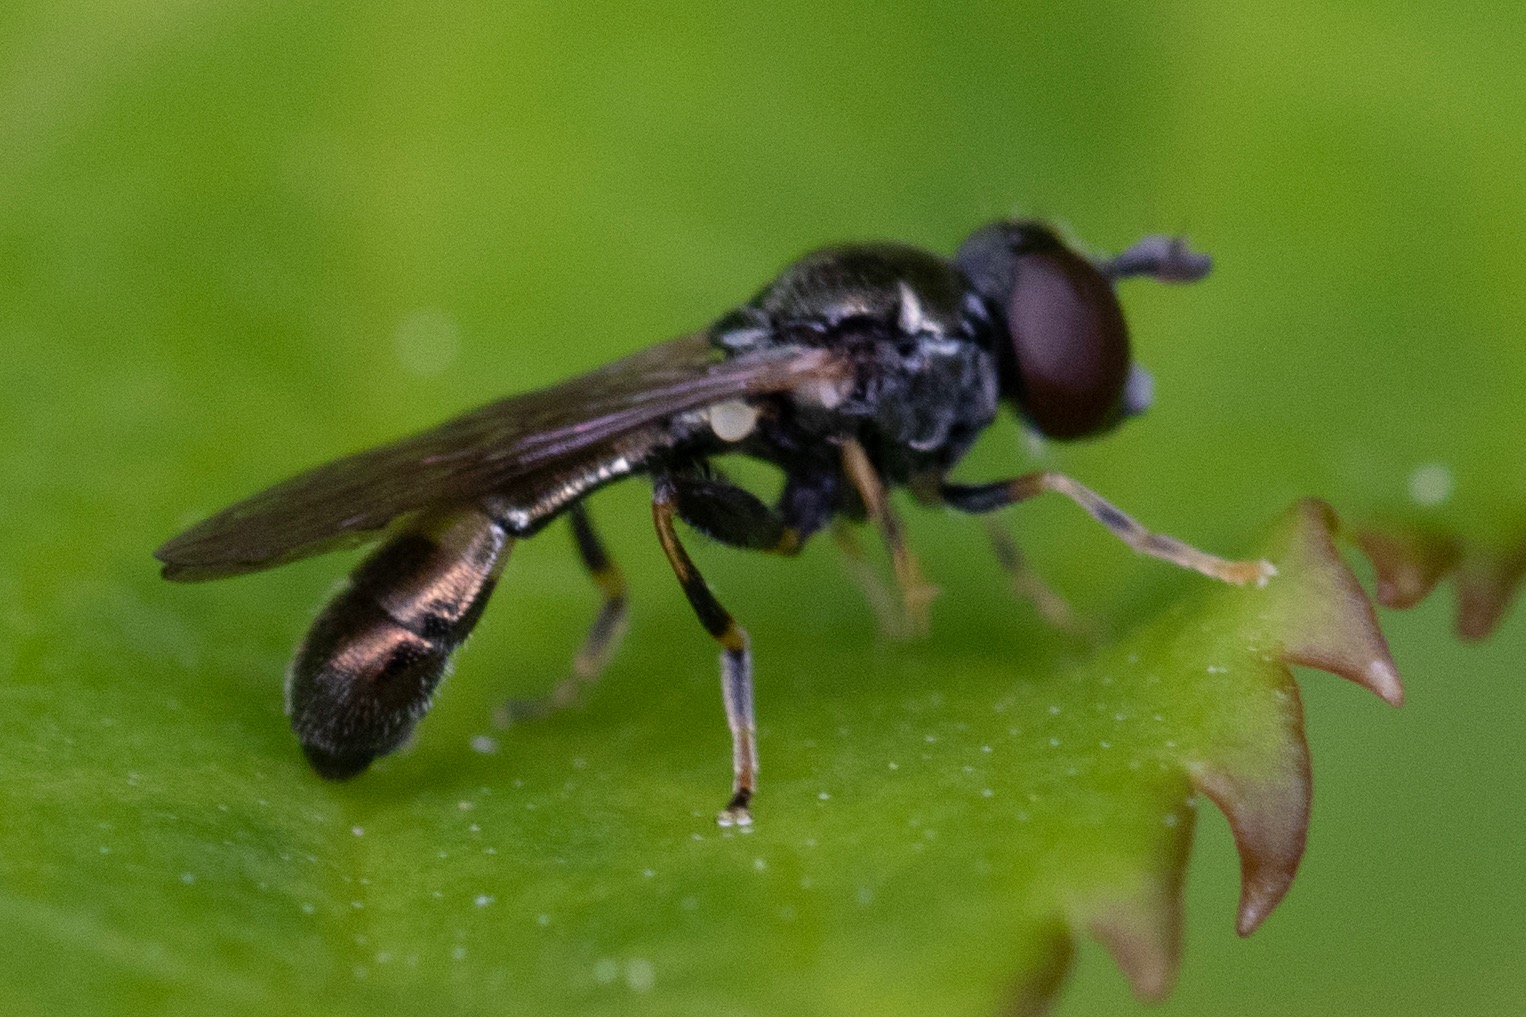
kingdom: Animalia
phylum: Arthropoda
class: Insecta
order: Diptera
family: Syrphidae
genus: Neoascia
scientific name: Neoascia annexa
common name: Bredbåndet køllesvirreflue
